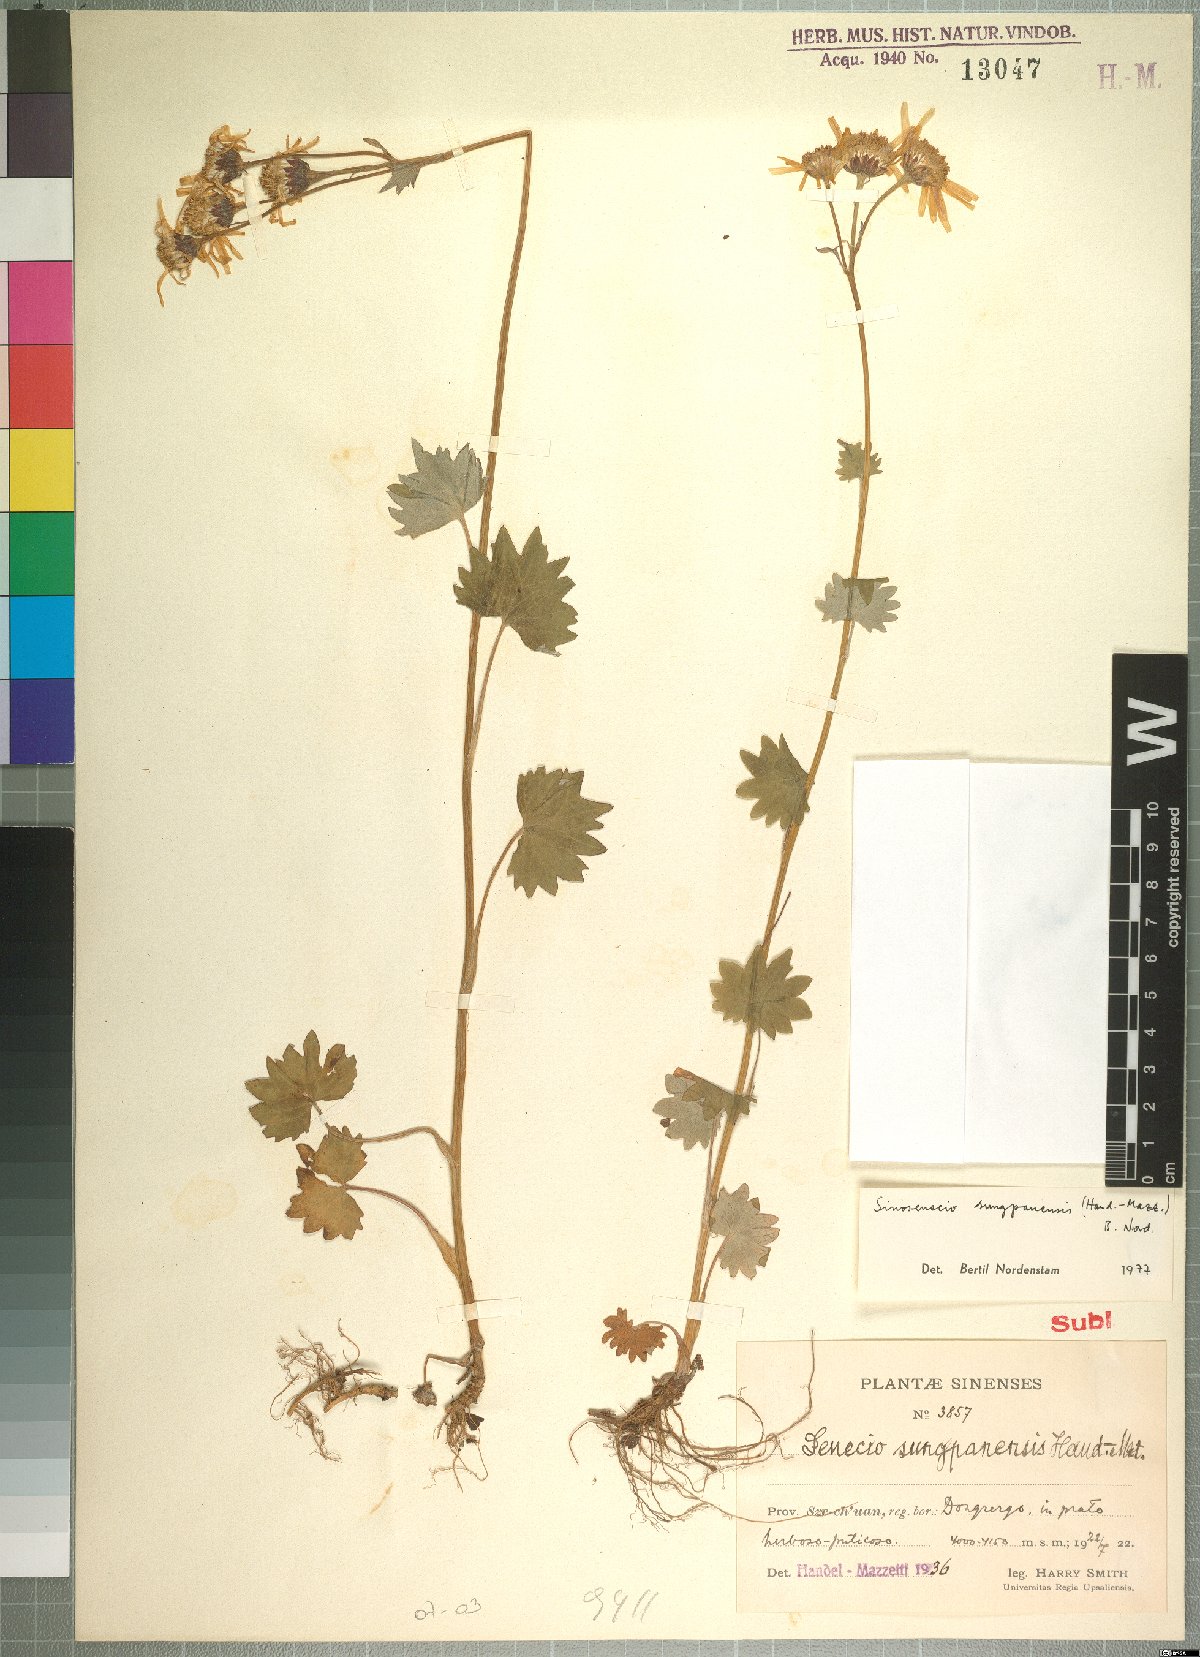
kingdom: Plantae
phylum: Tracheophyta
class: Magnoliopsida
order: Asterales
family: Asteraceae
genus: Sinosenecio
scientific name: Sinosenecio sungpanensis
